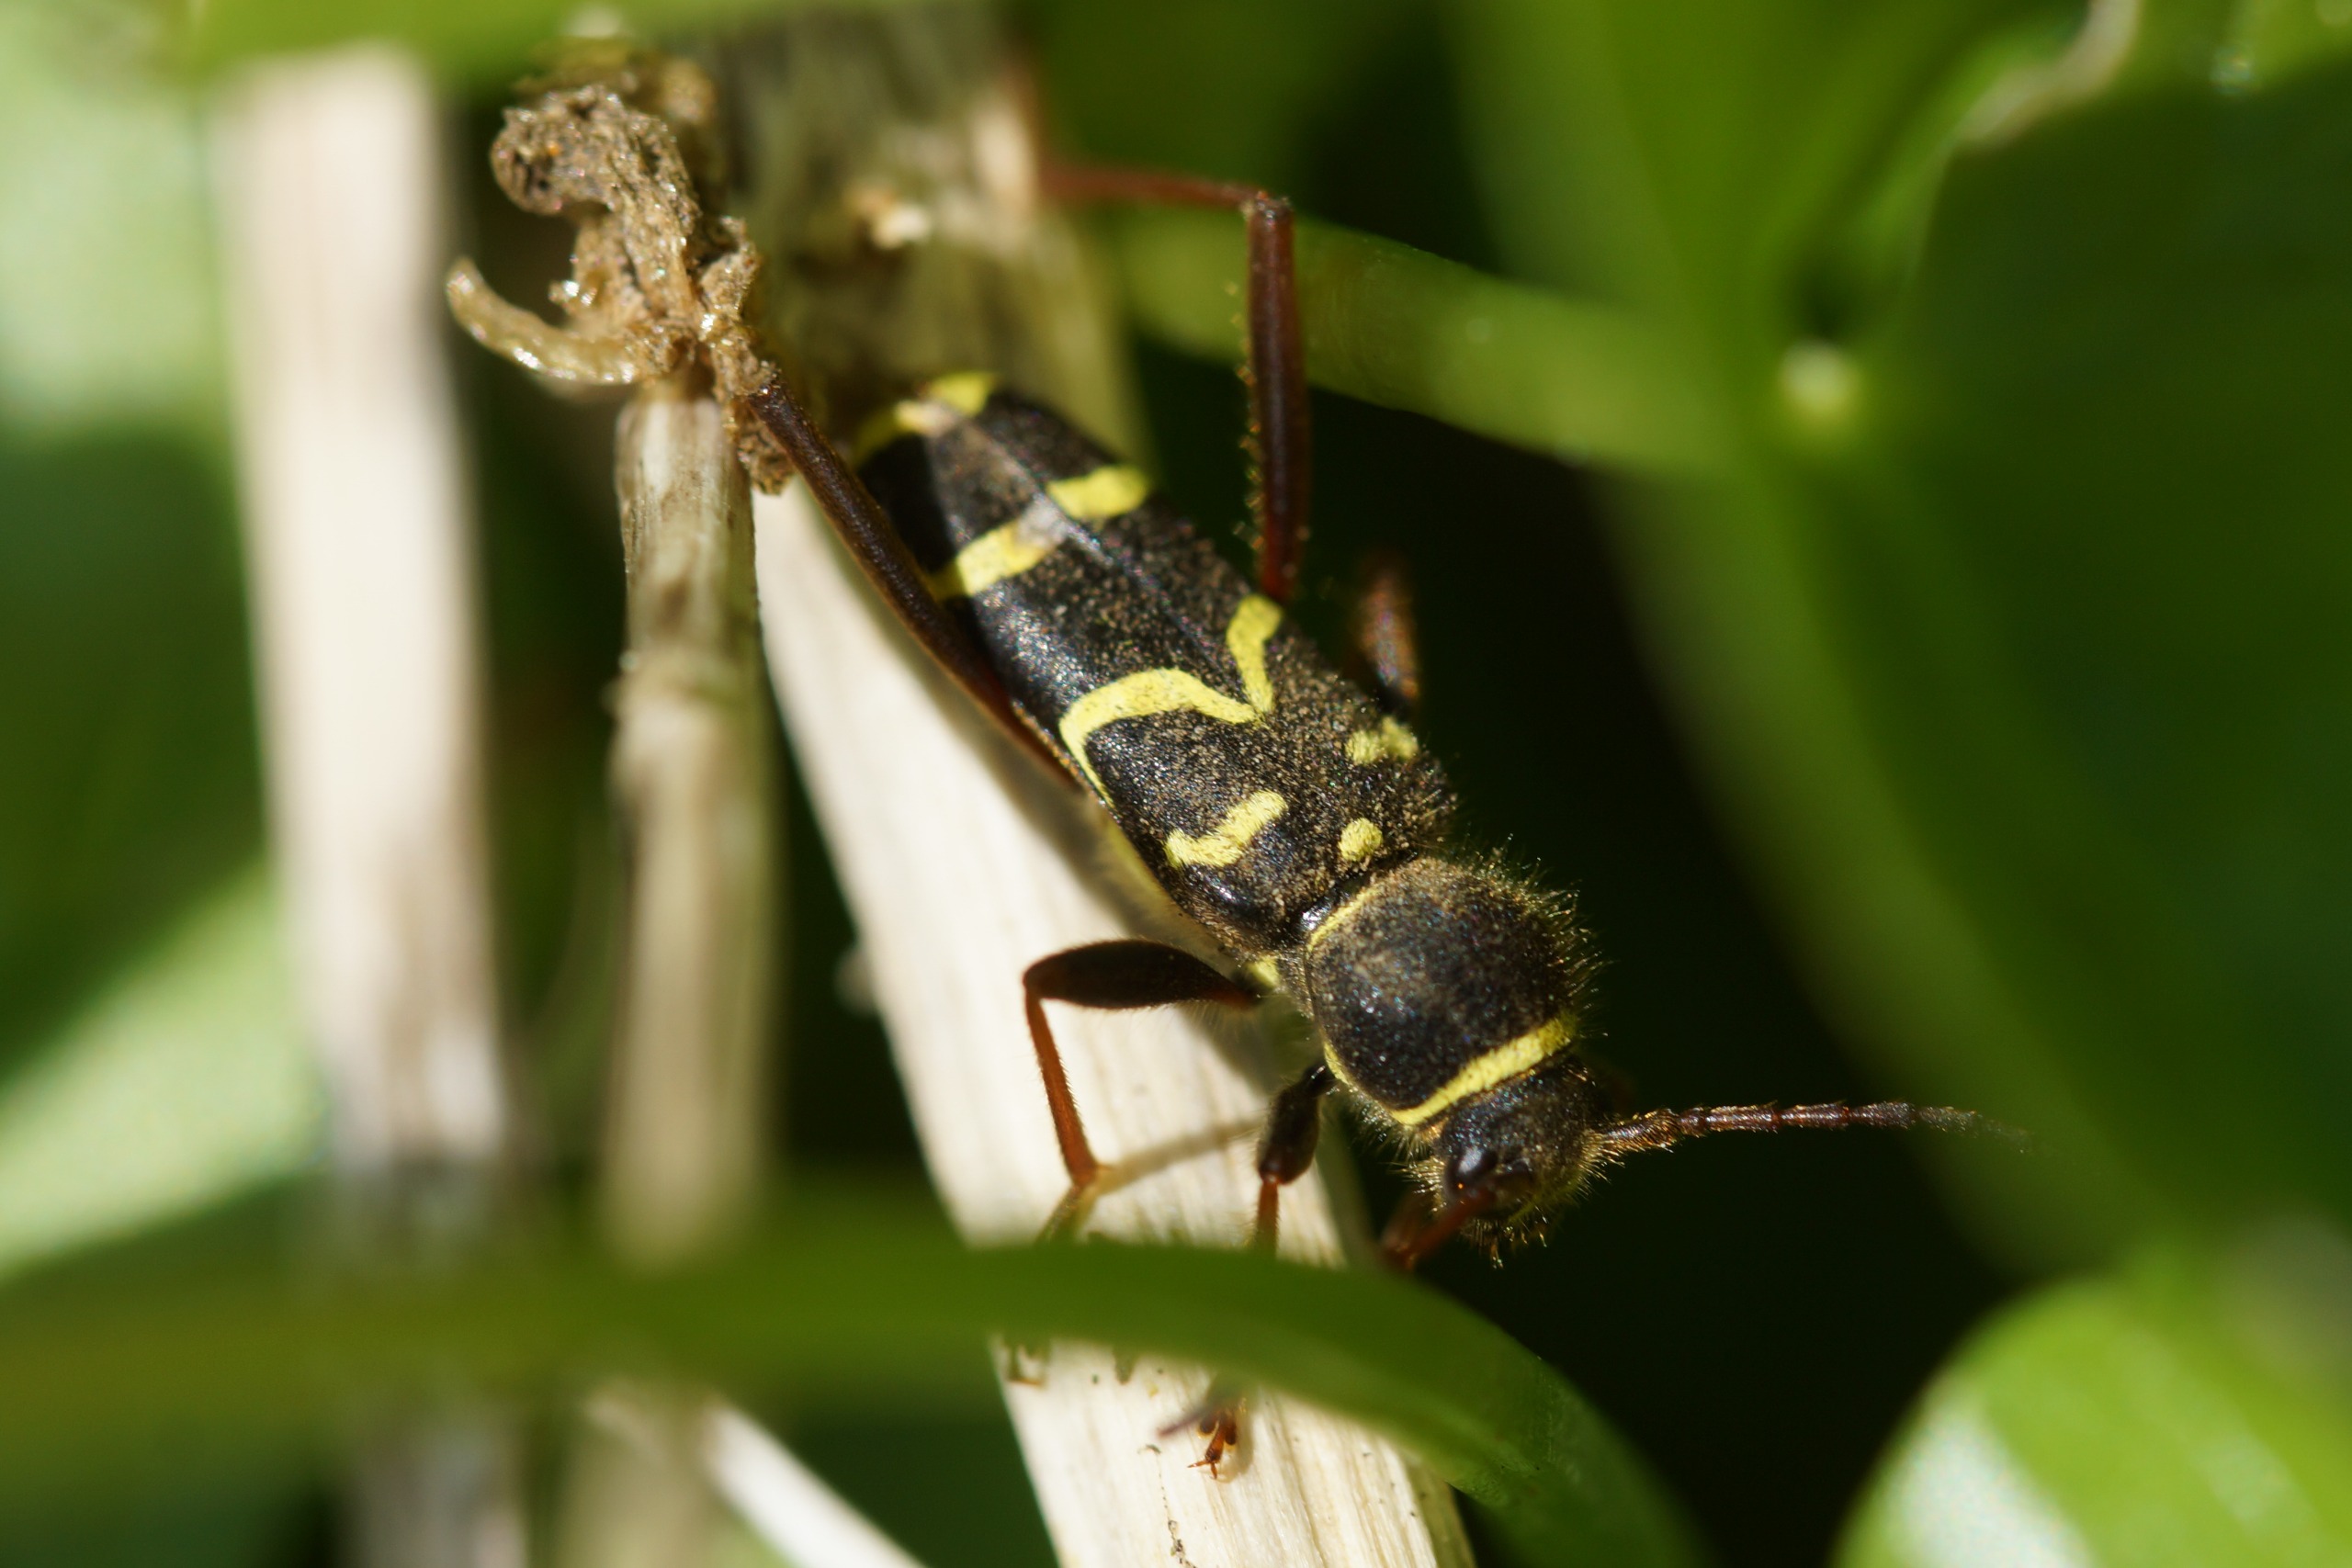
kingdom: Animalia
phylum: Arthropoda
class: Insecta
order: Coleoptera
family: Cerambycidae
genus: Clytus
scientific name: Clytus arietis
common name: Lille hvepsebuk
